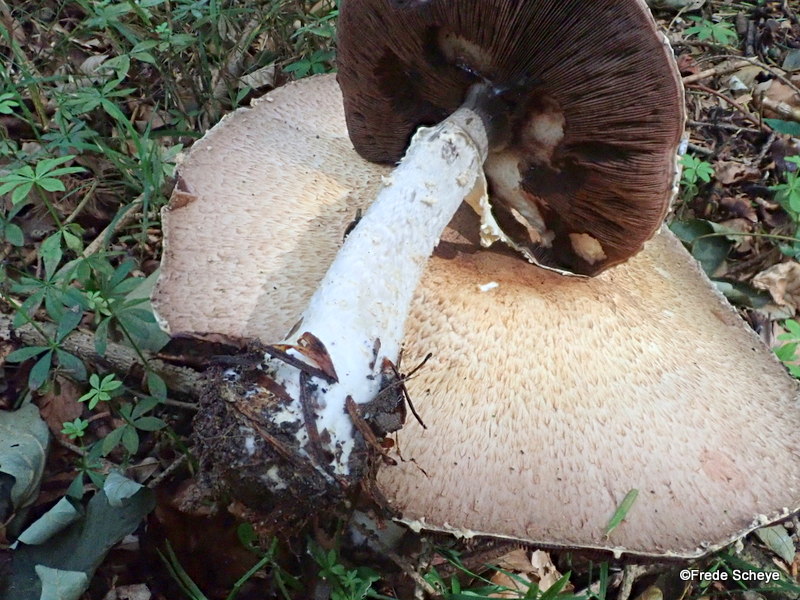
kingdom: Fungi
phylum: Basidiomycota
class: Agaricomycetes
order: Agaricales
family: Agaricaceae
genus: Agaricus
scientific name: Agaricus impudicus
